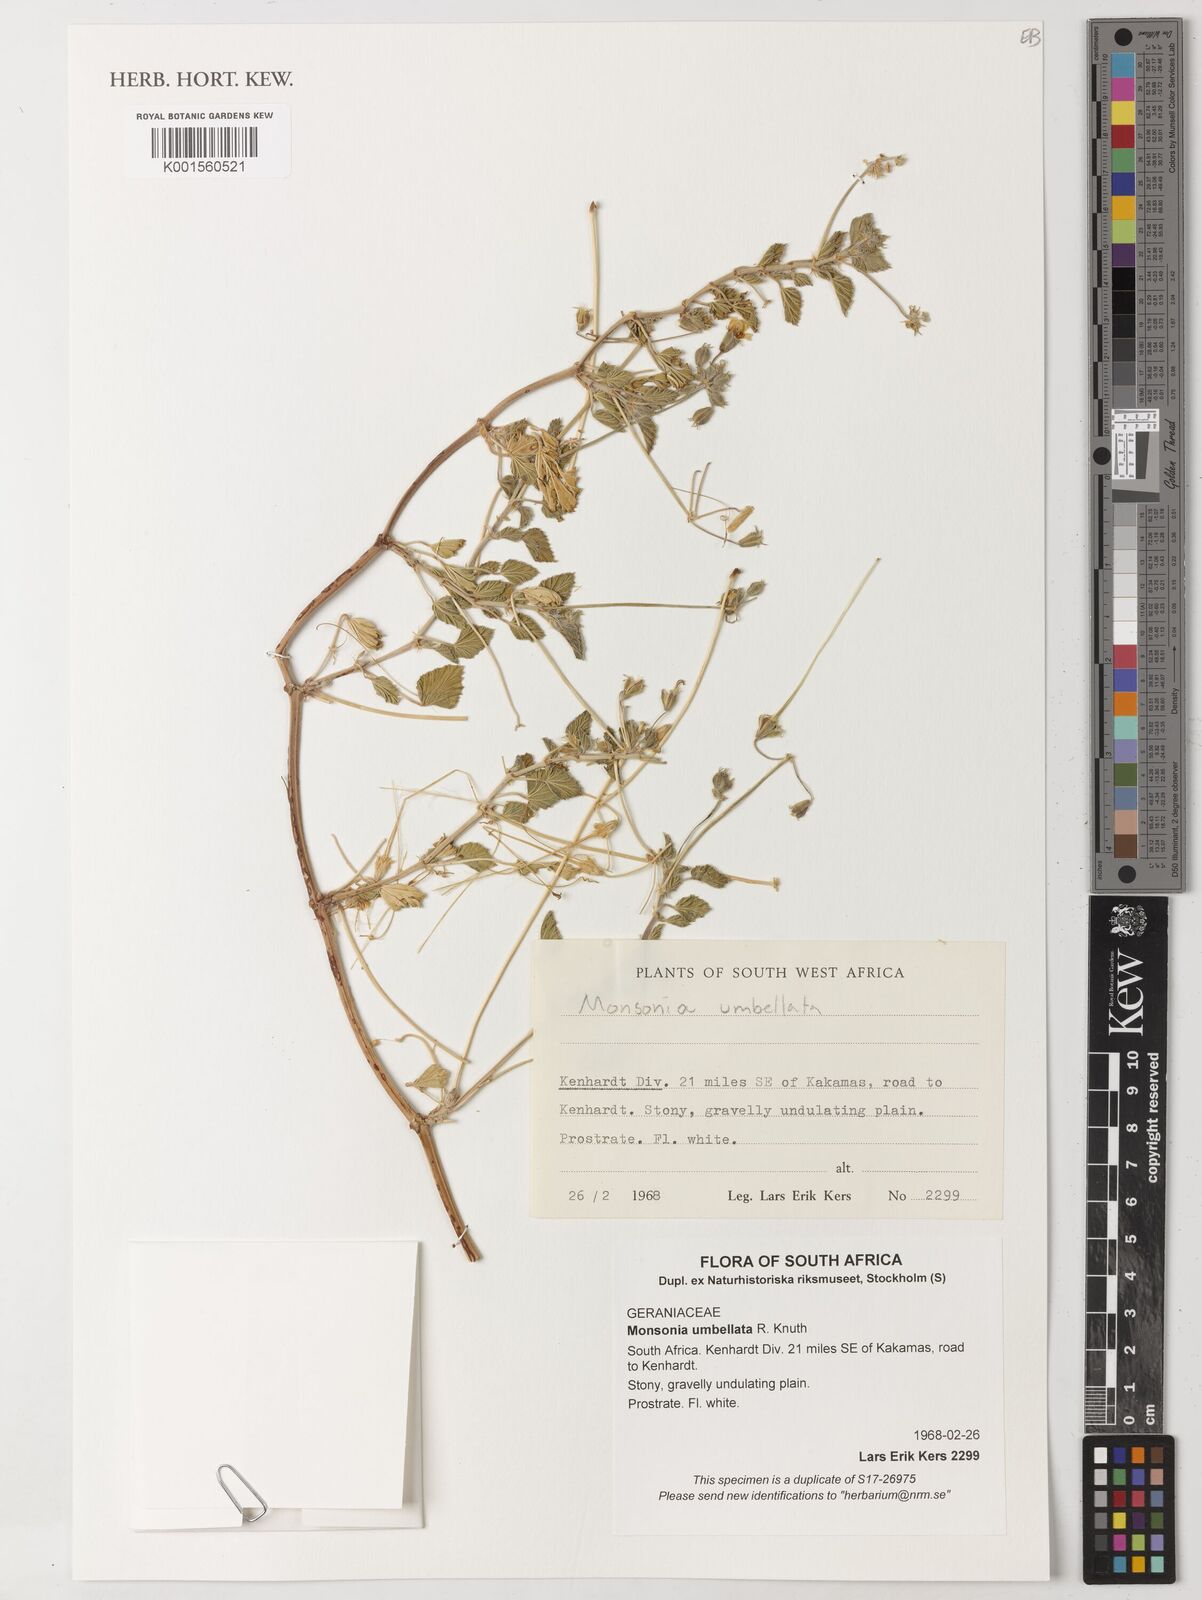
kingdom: Plantae
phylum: Tracheophyta
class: Magnoliopsida
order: Geraniales
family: Geraniaceae
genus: Monsonia
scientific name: Monsonia umbellata
